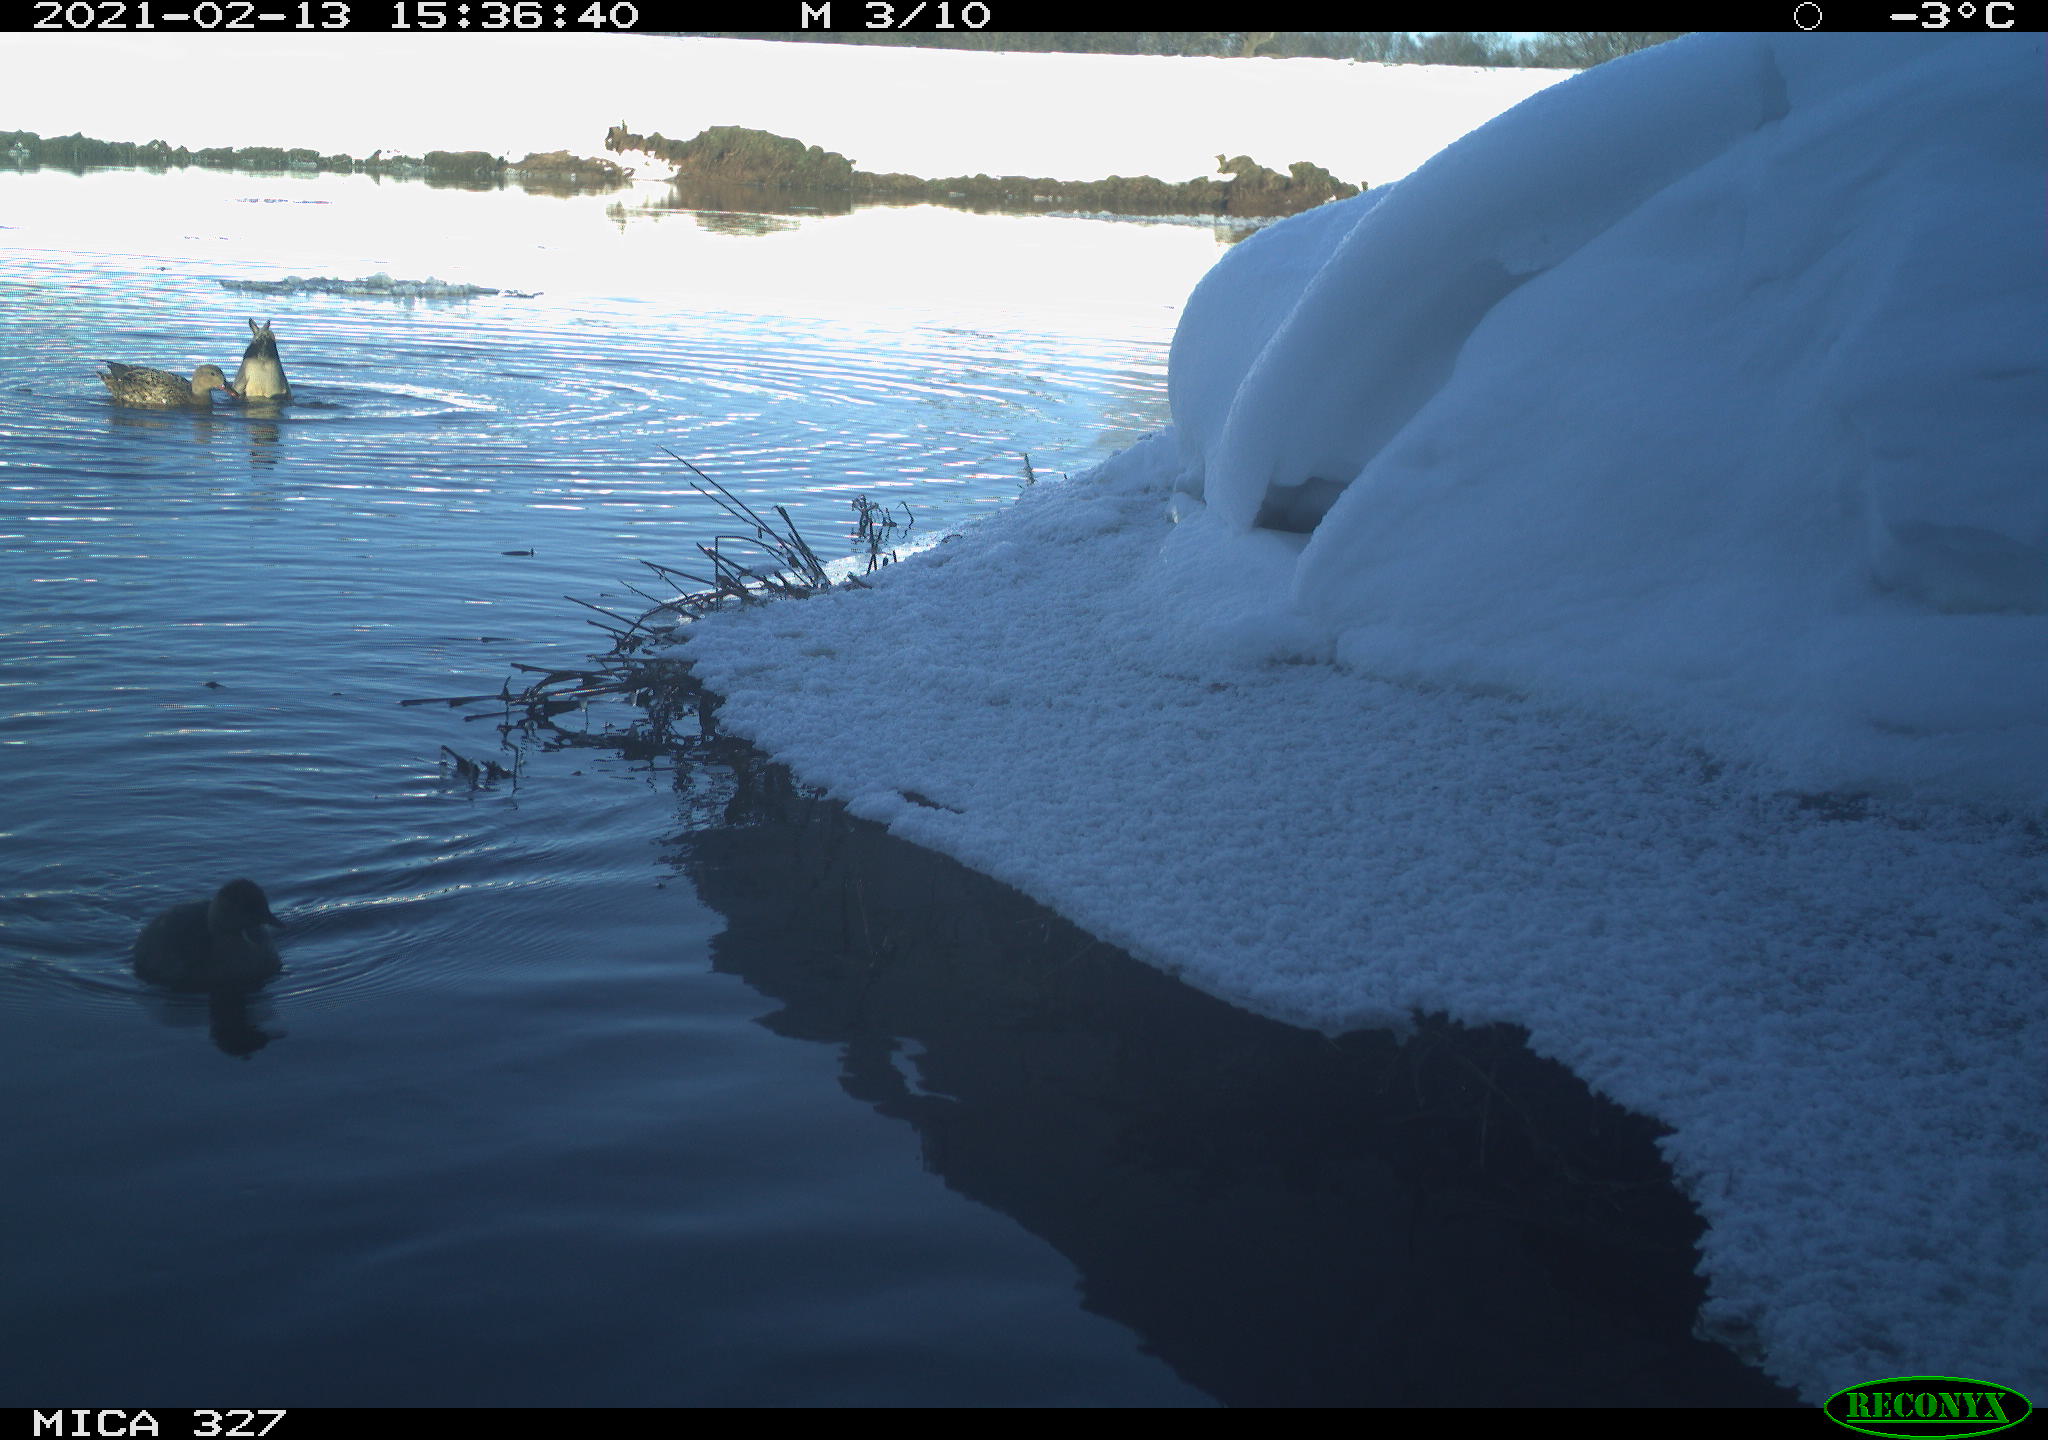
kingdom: Animalia
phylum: Chordata
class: Aves
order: Anseriformes
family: Anatidae
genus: Anas
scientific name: Anas
